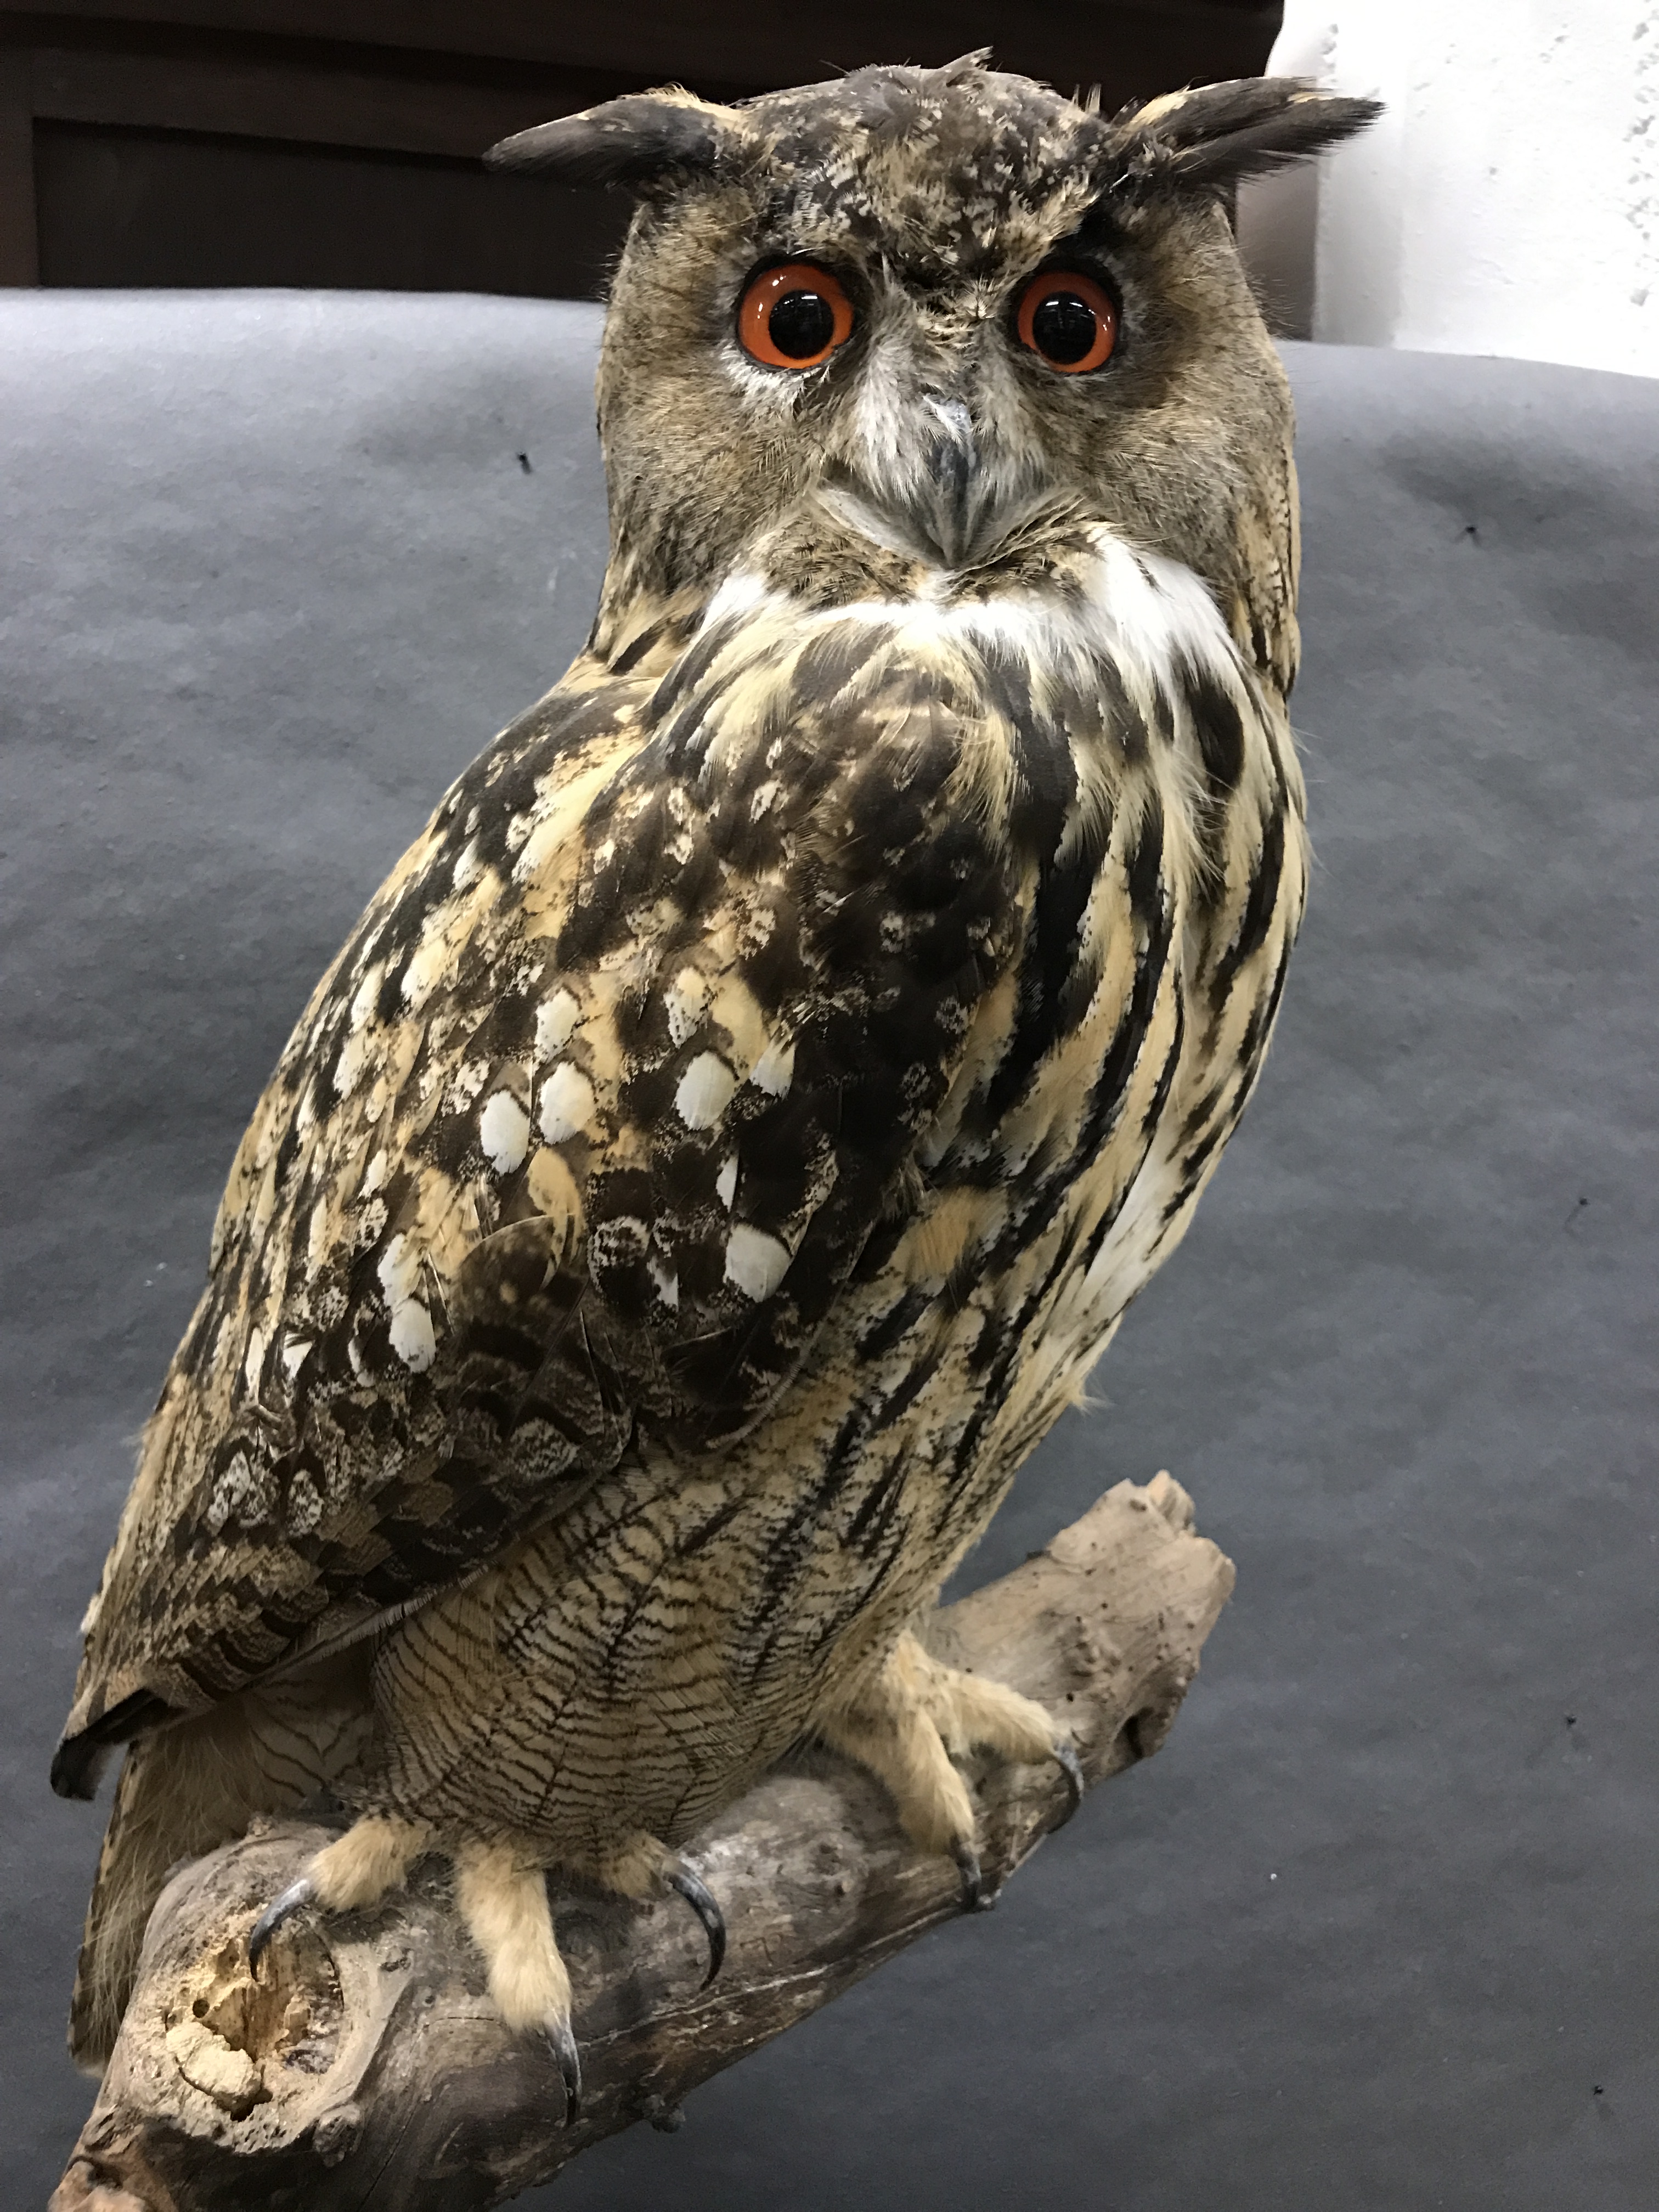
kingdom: Animalia
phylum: Chordata
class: Aves
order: Strigiformes
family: Strigidae
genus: Bubo
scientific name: Bubo
